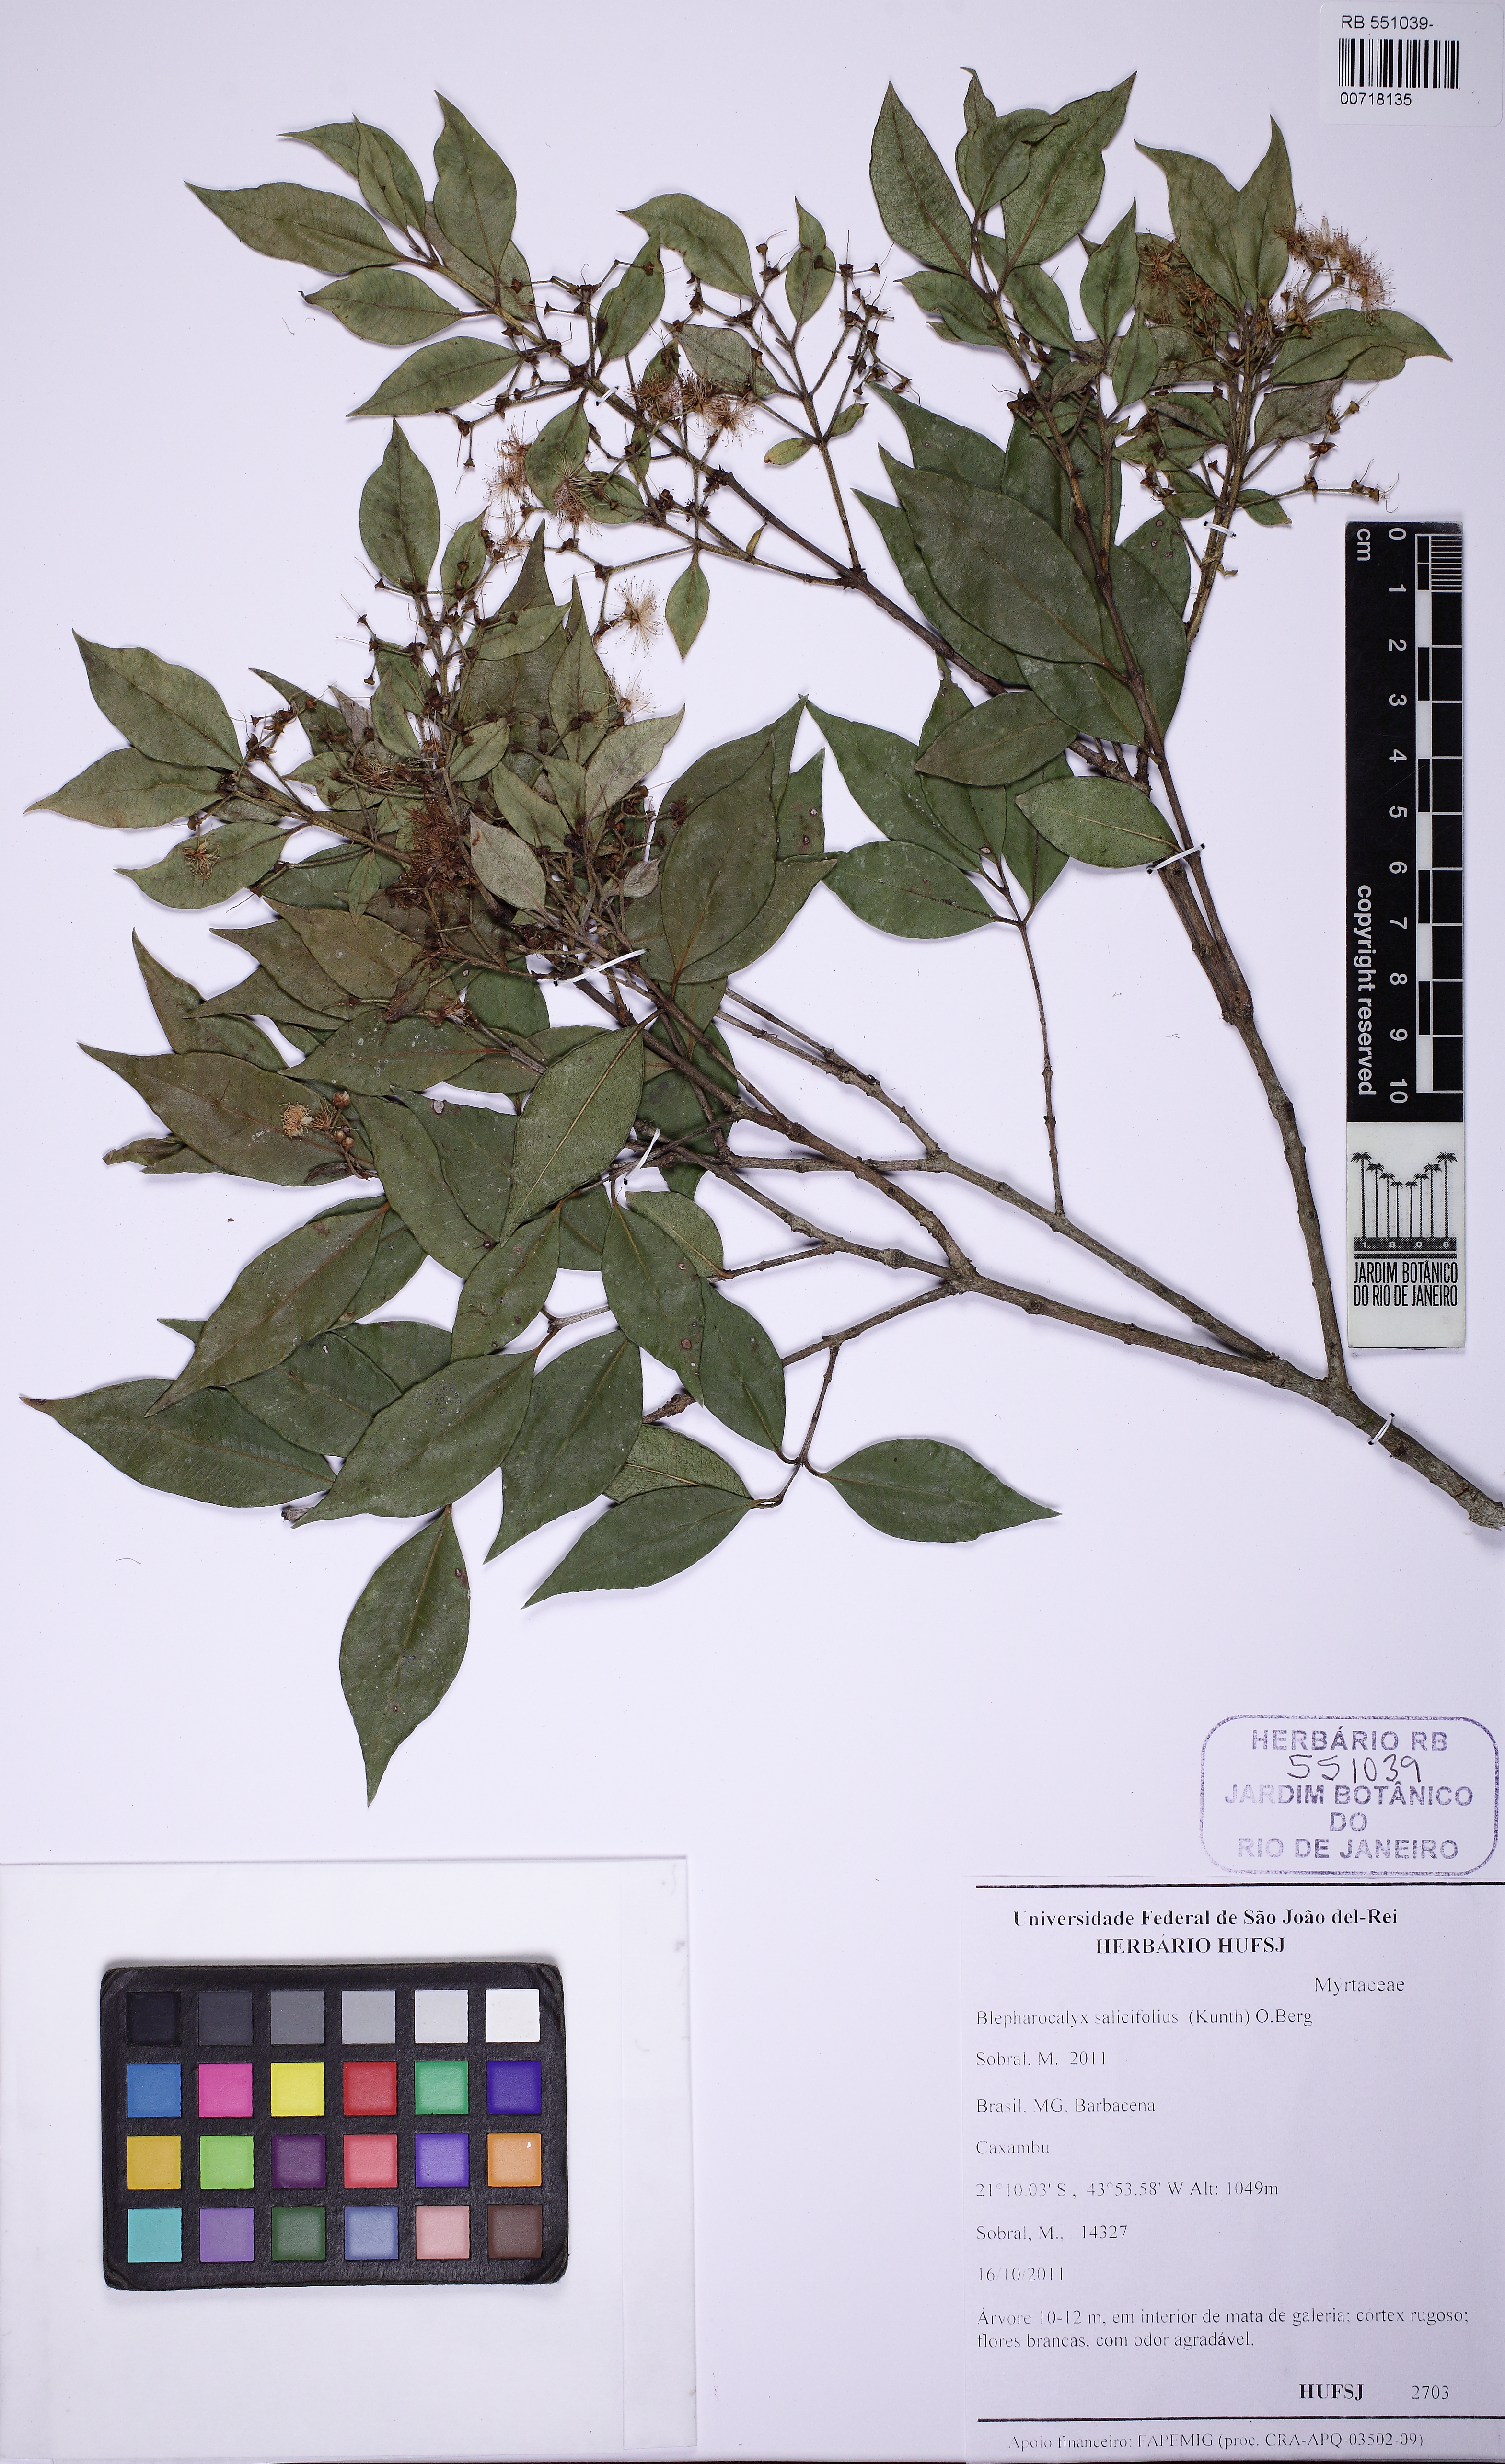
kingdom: Plantae
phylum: Tracheophyta
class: Magnoliopsida
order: Myrtales
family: Myrtaceae
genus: Blepharocalyx
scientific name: Blepharocalyx salicifolius
